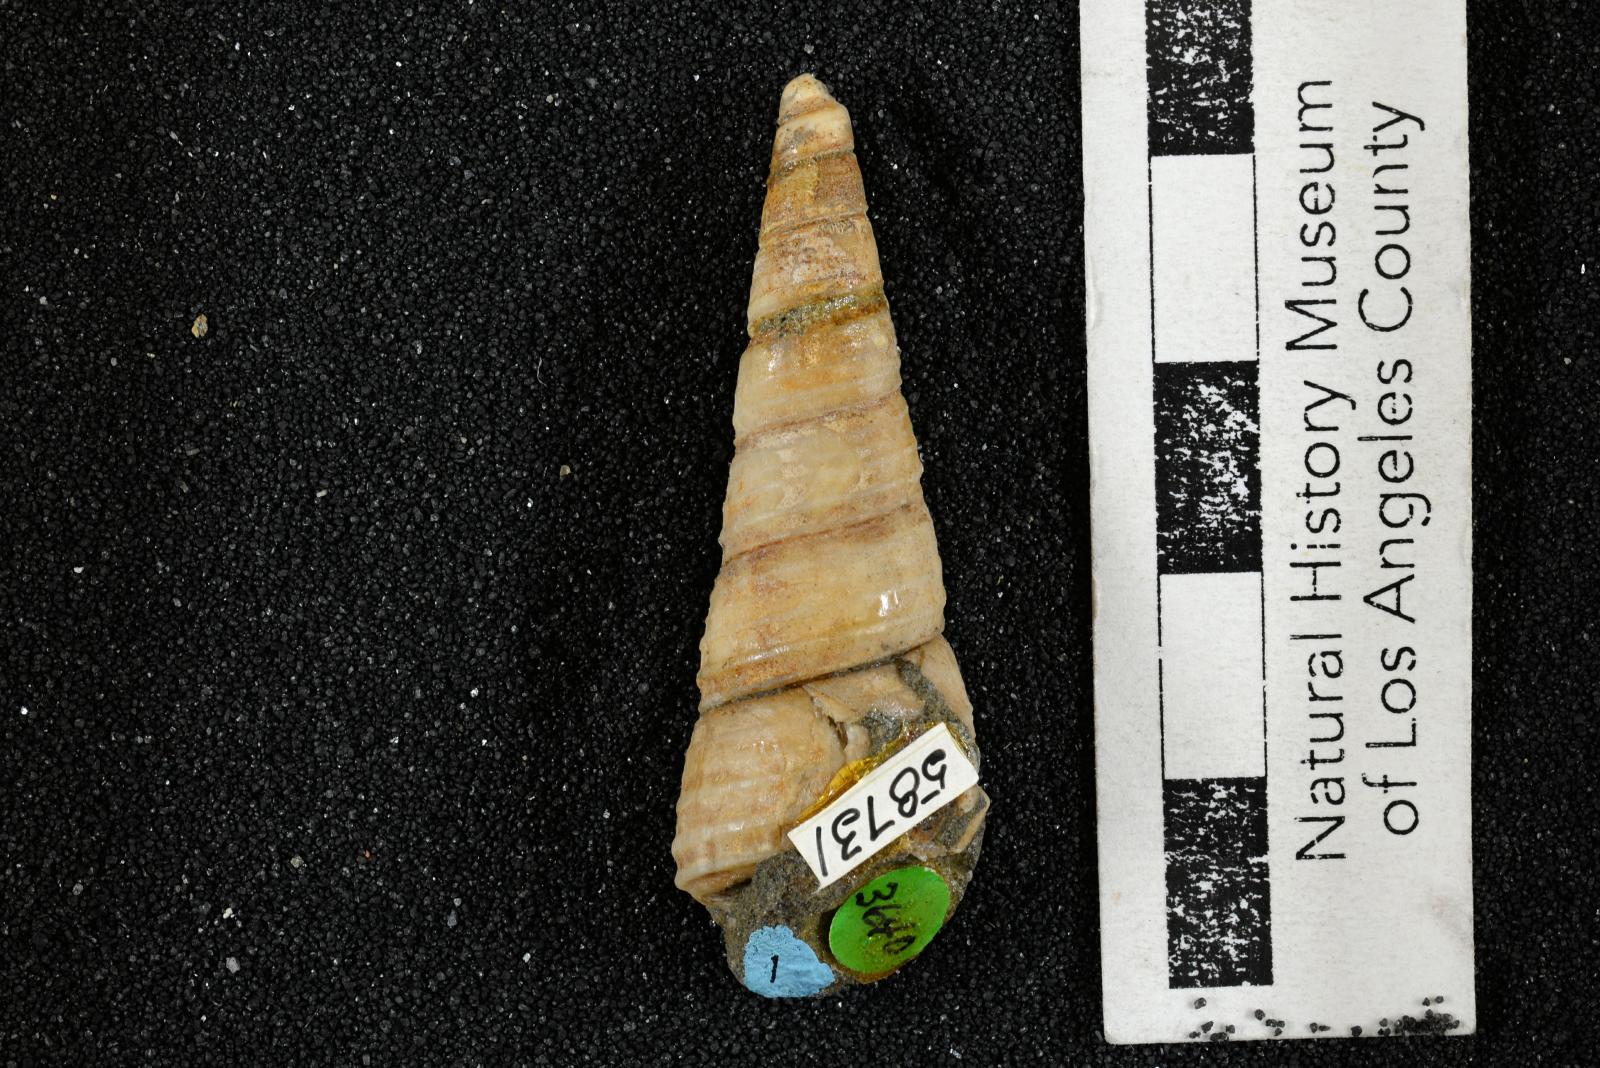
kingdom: Animalia
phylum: Mollusca
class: Gastropoda
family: Turritellidae
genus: Turritella
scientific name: Turritella chicoensis
